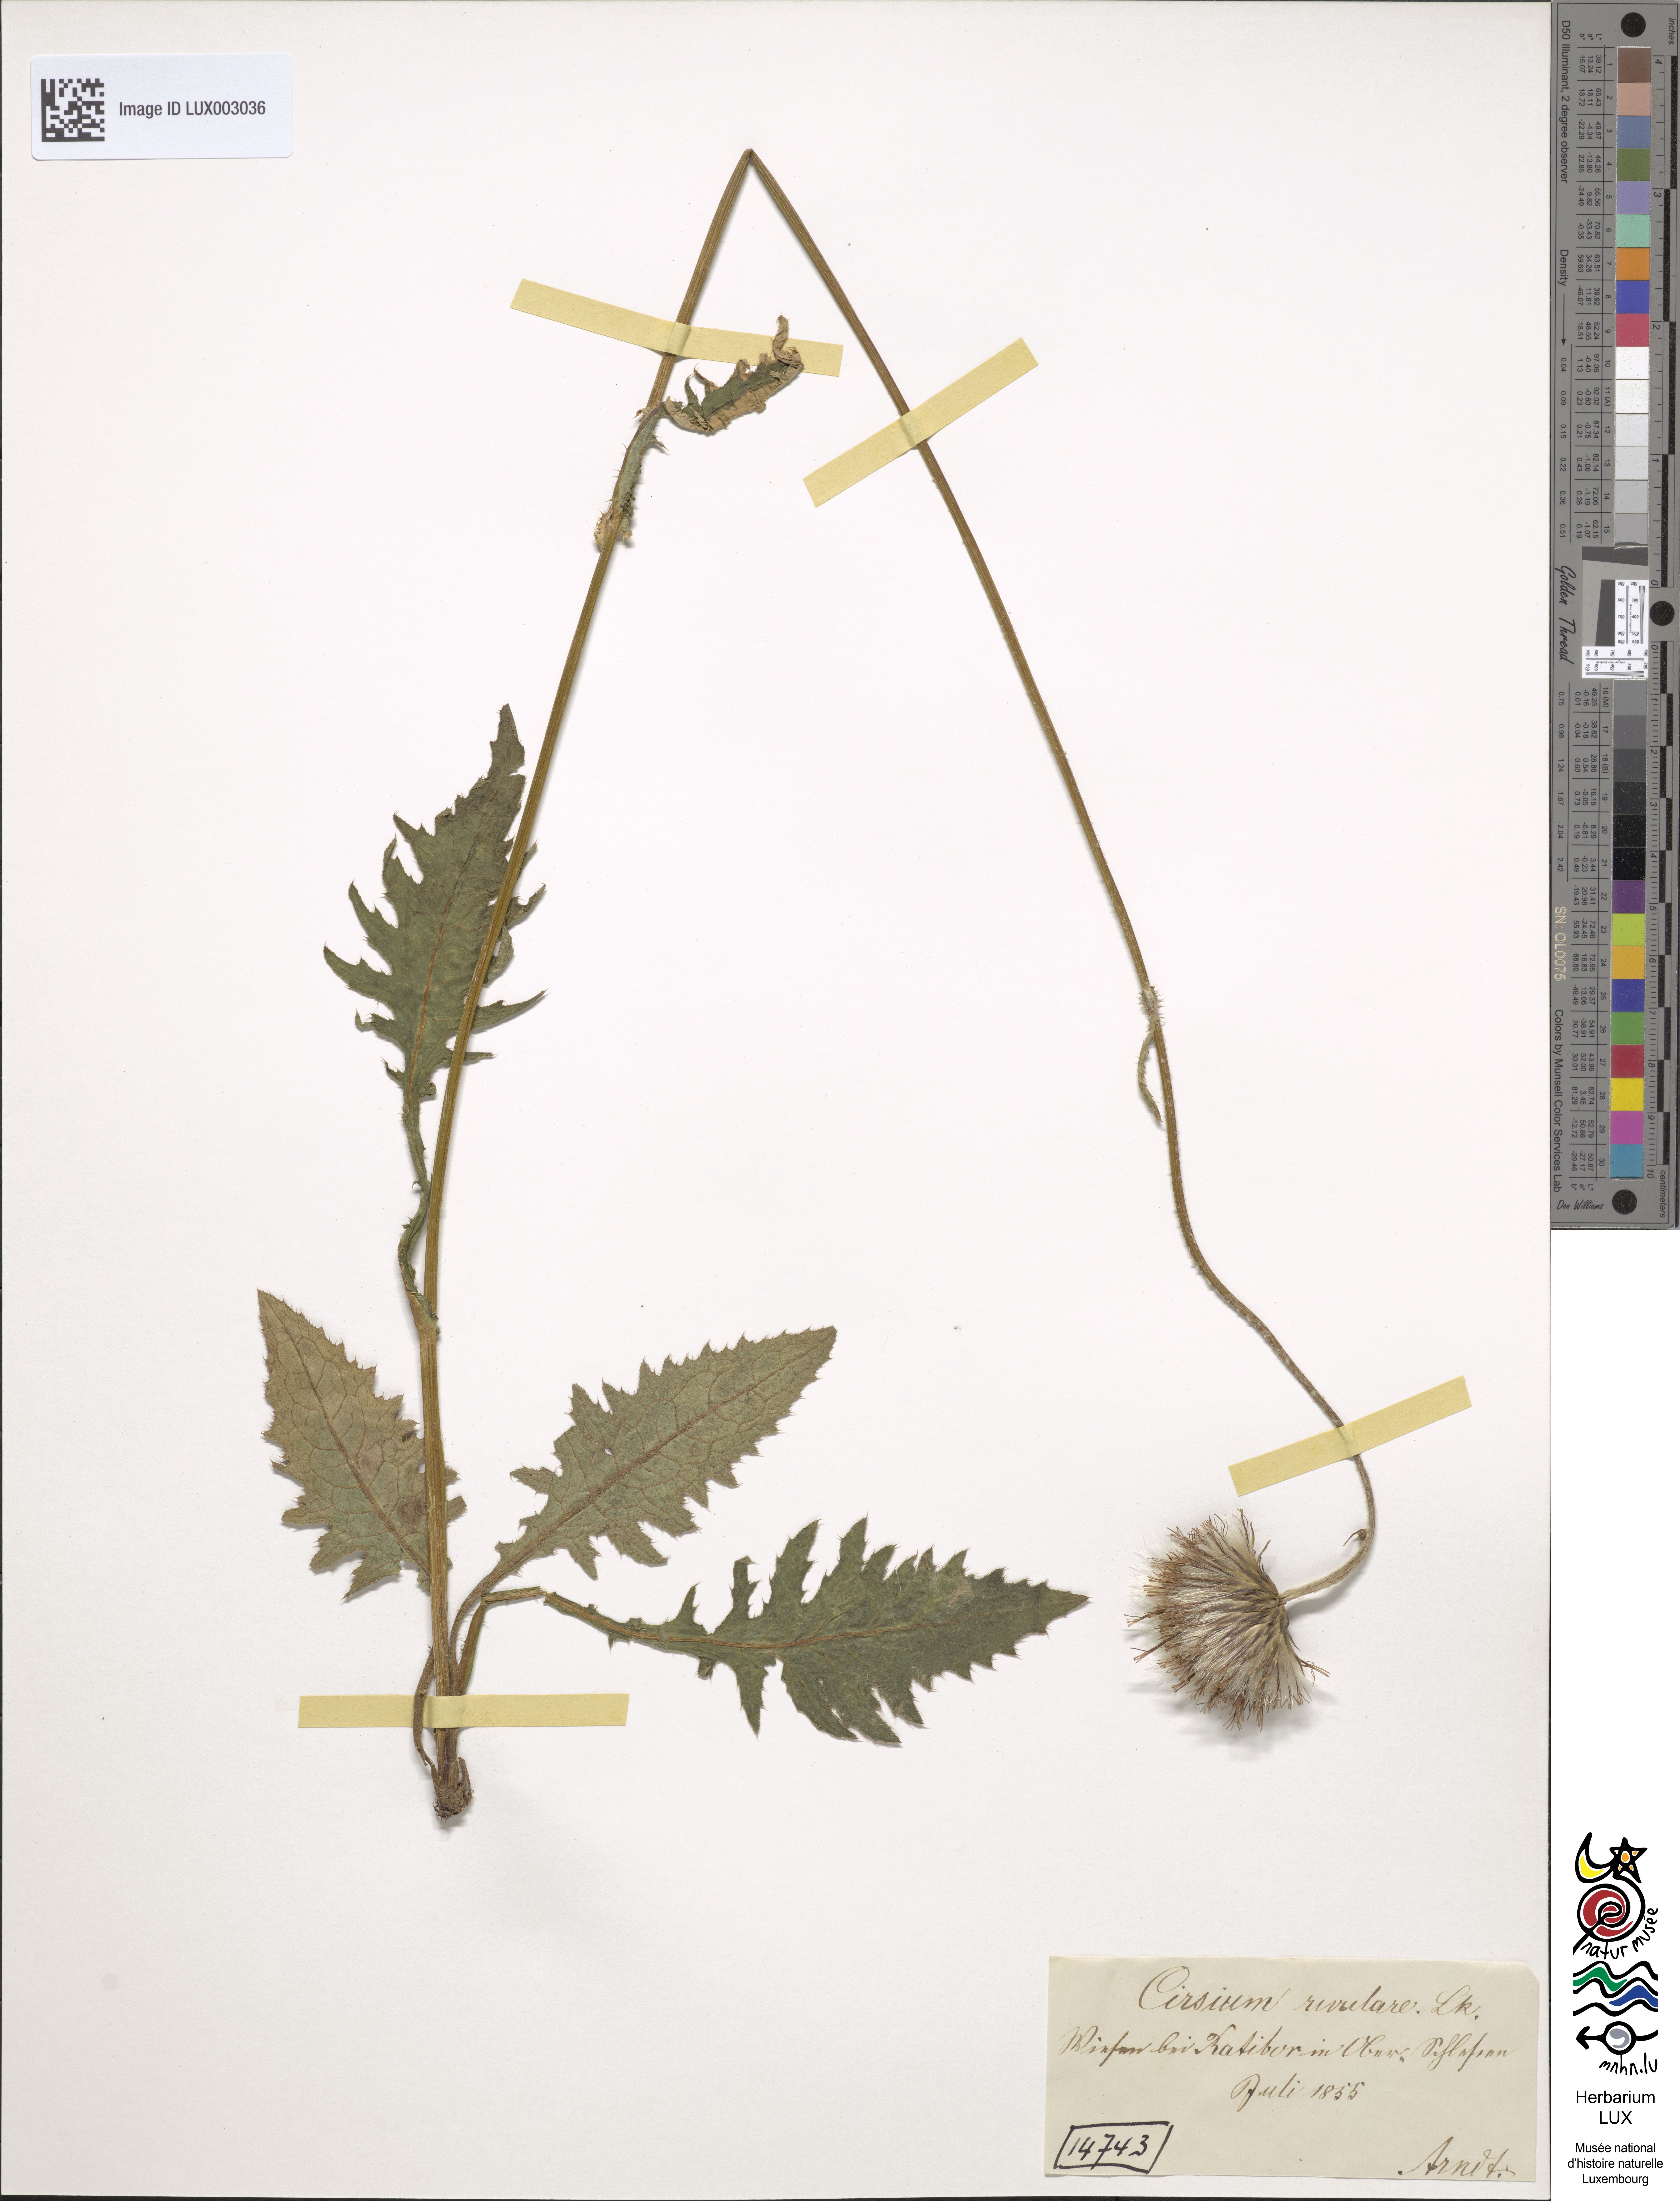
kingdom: Plantae
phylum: Tracheophyta
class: Magnoliopsida
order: Asterales
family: Asteraceae
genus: Cirsium
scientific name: Cirsium rivulare
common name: Brook thistle
